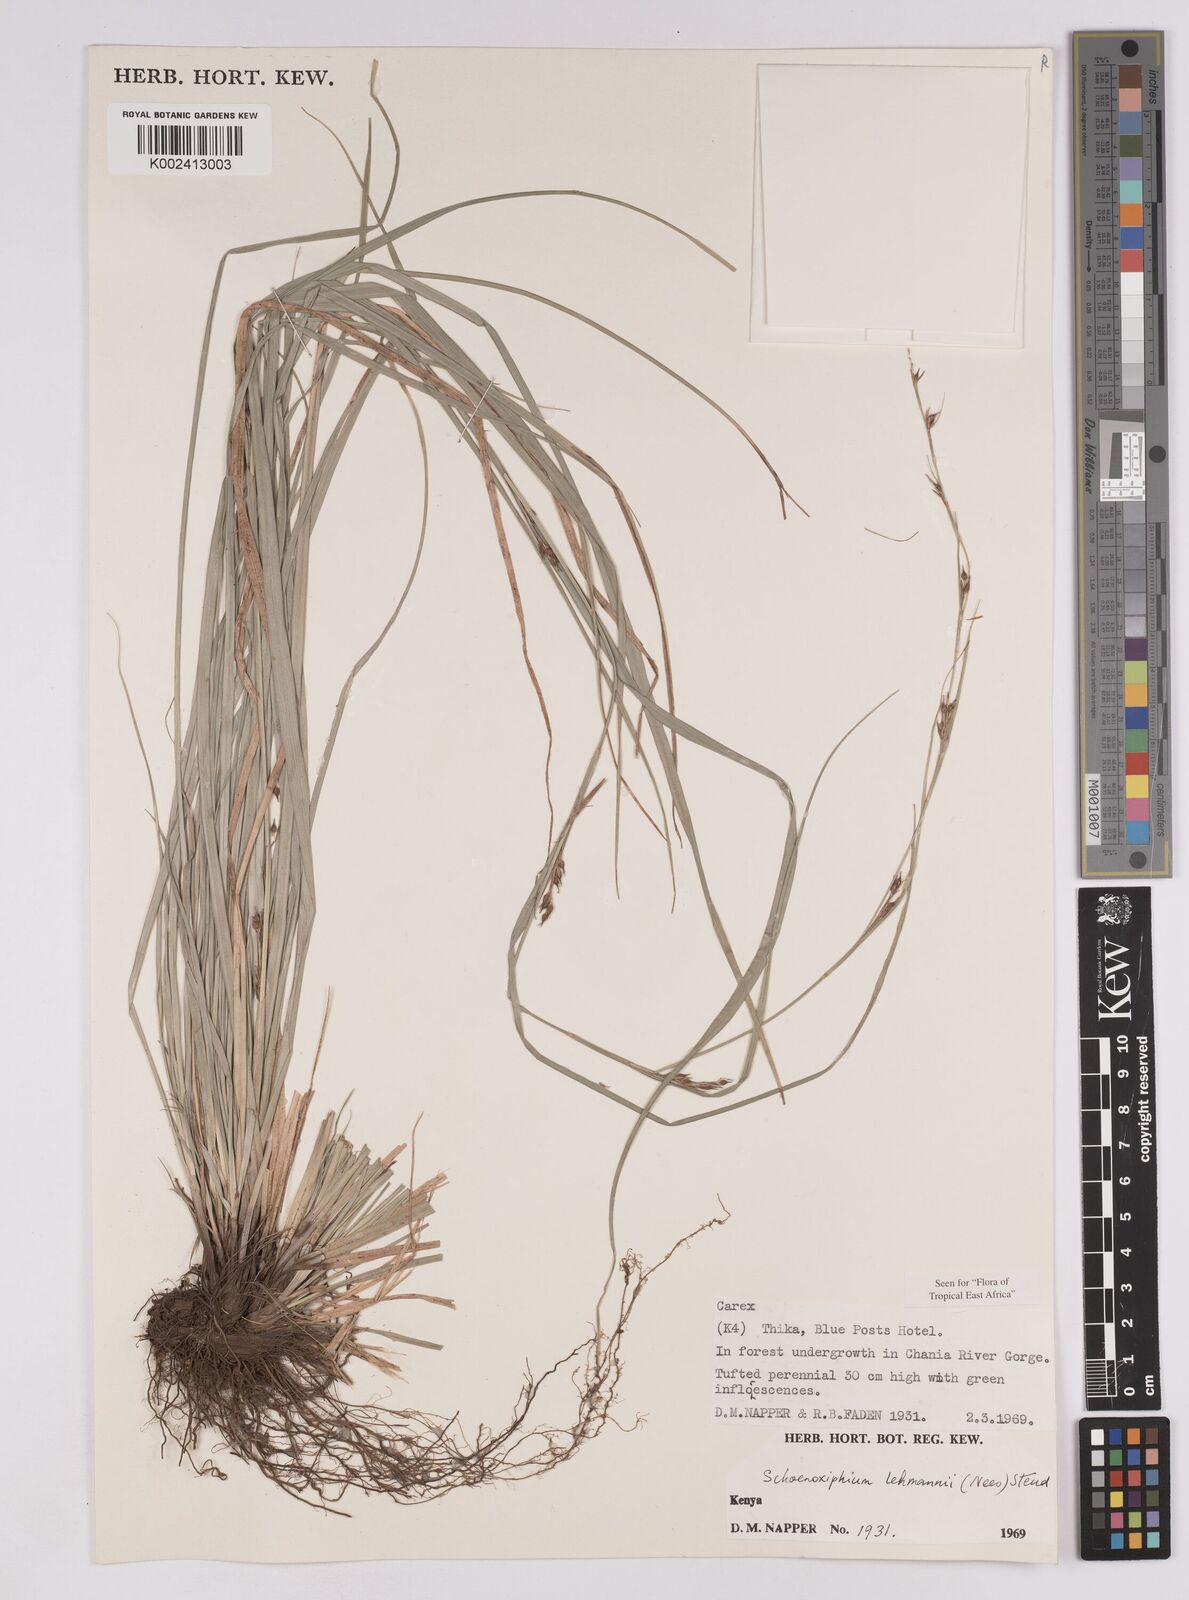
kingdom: Plantae
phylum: Tracheophyta
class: Liliopsida
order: Poales
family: Cyperaceae
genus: Carex
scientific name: Carex uhligii
